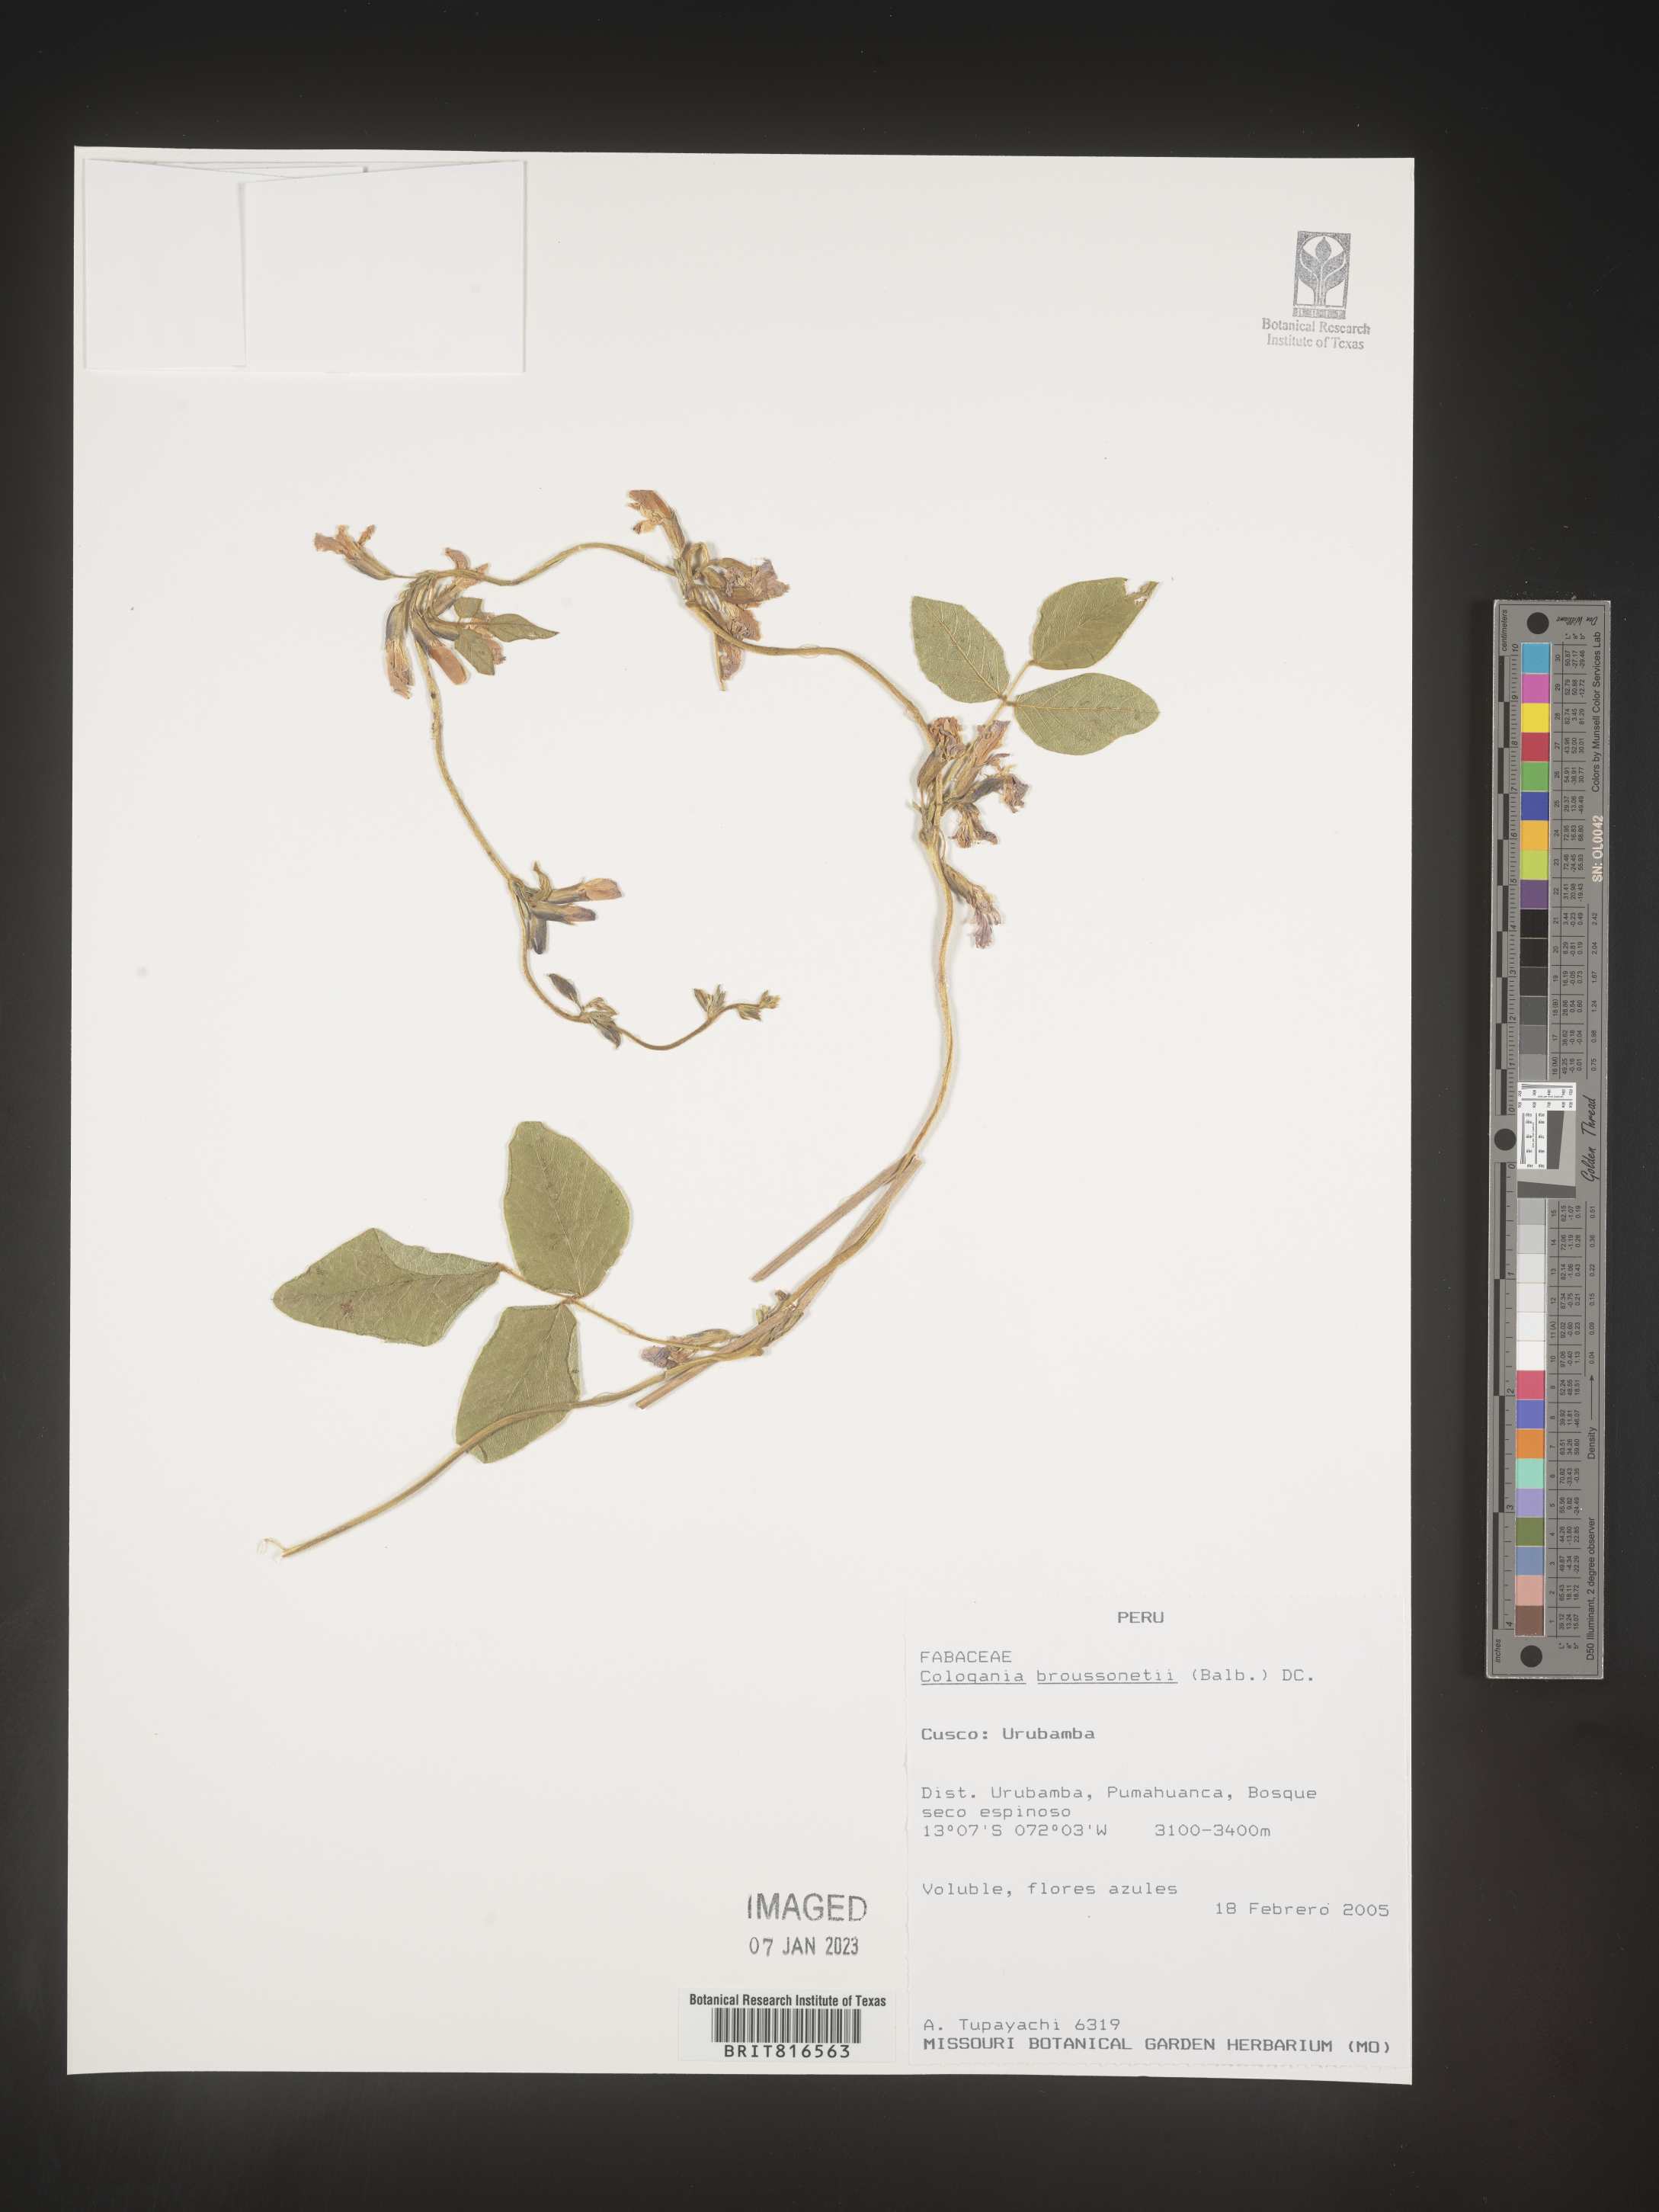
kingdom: Plantae
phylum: Tracheophyta
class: Magnoliopsida
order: Fabales
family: Fabaceae
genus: Cologania
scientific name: Cologania
